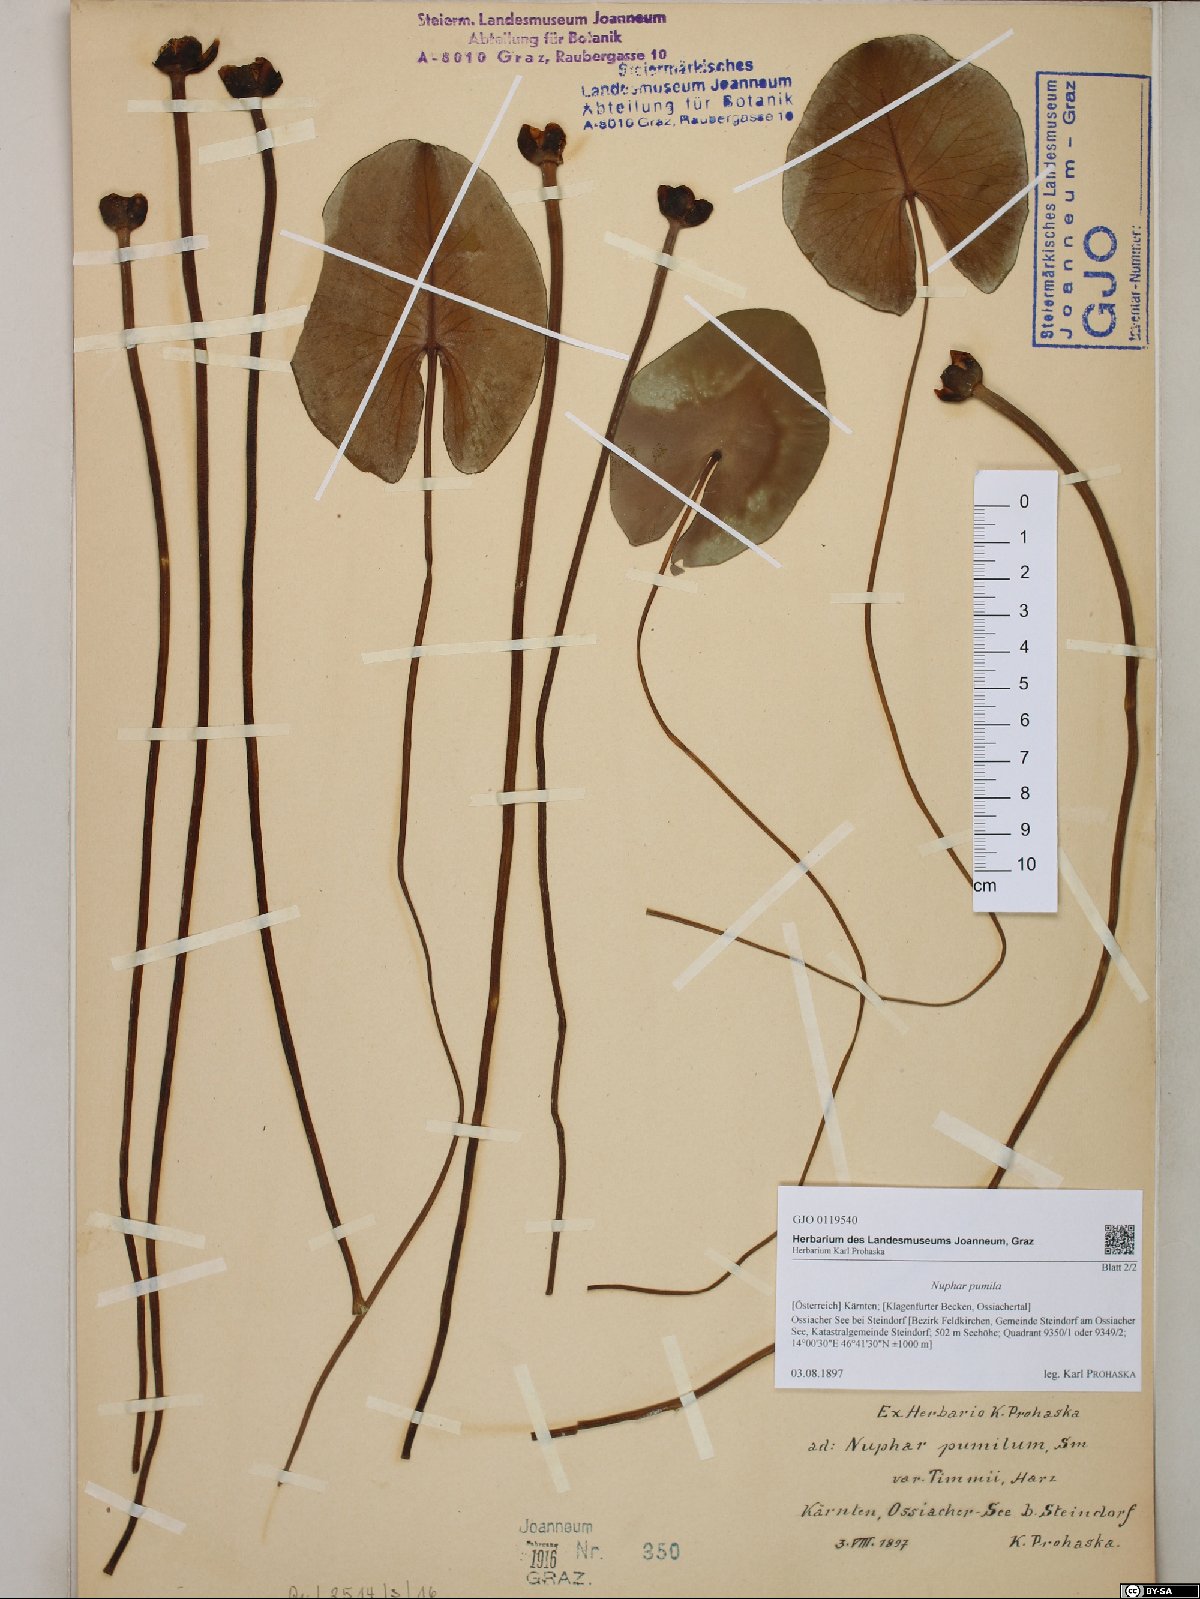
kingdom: Plantae
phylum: Tracheophyta
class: Magnoliopsida
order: Nymphaeales
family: Nymphaeaceae
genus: Nuphar
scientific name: Nuphar pumila
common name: Least water-lily
